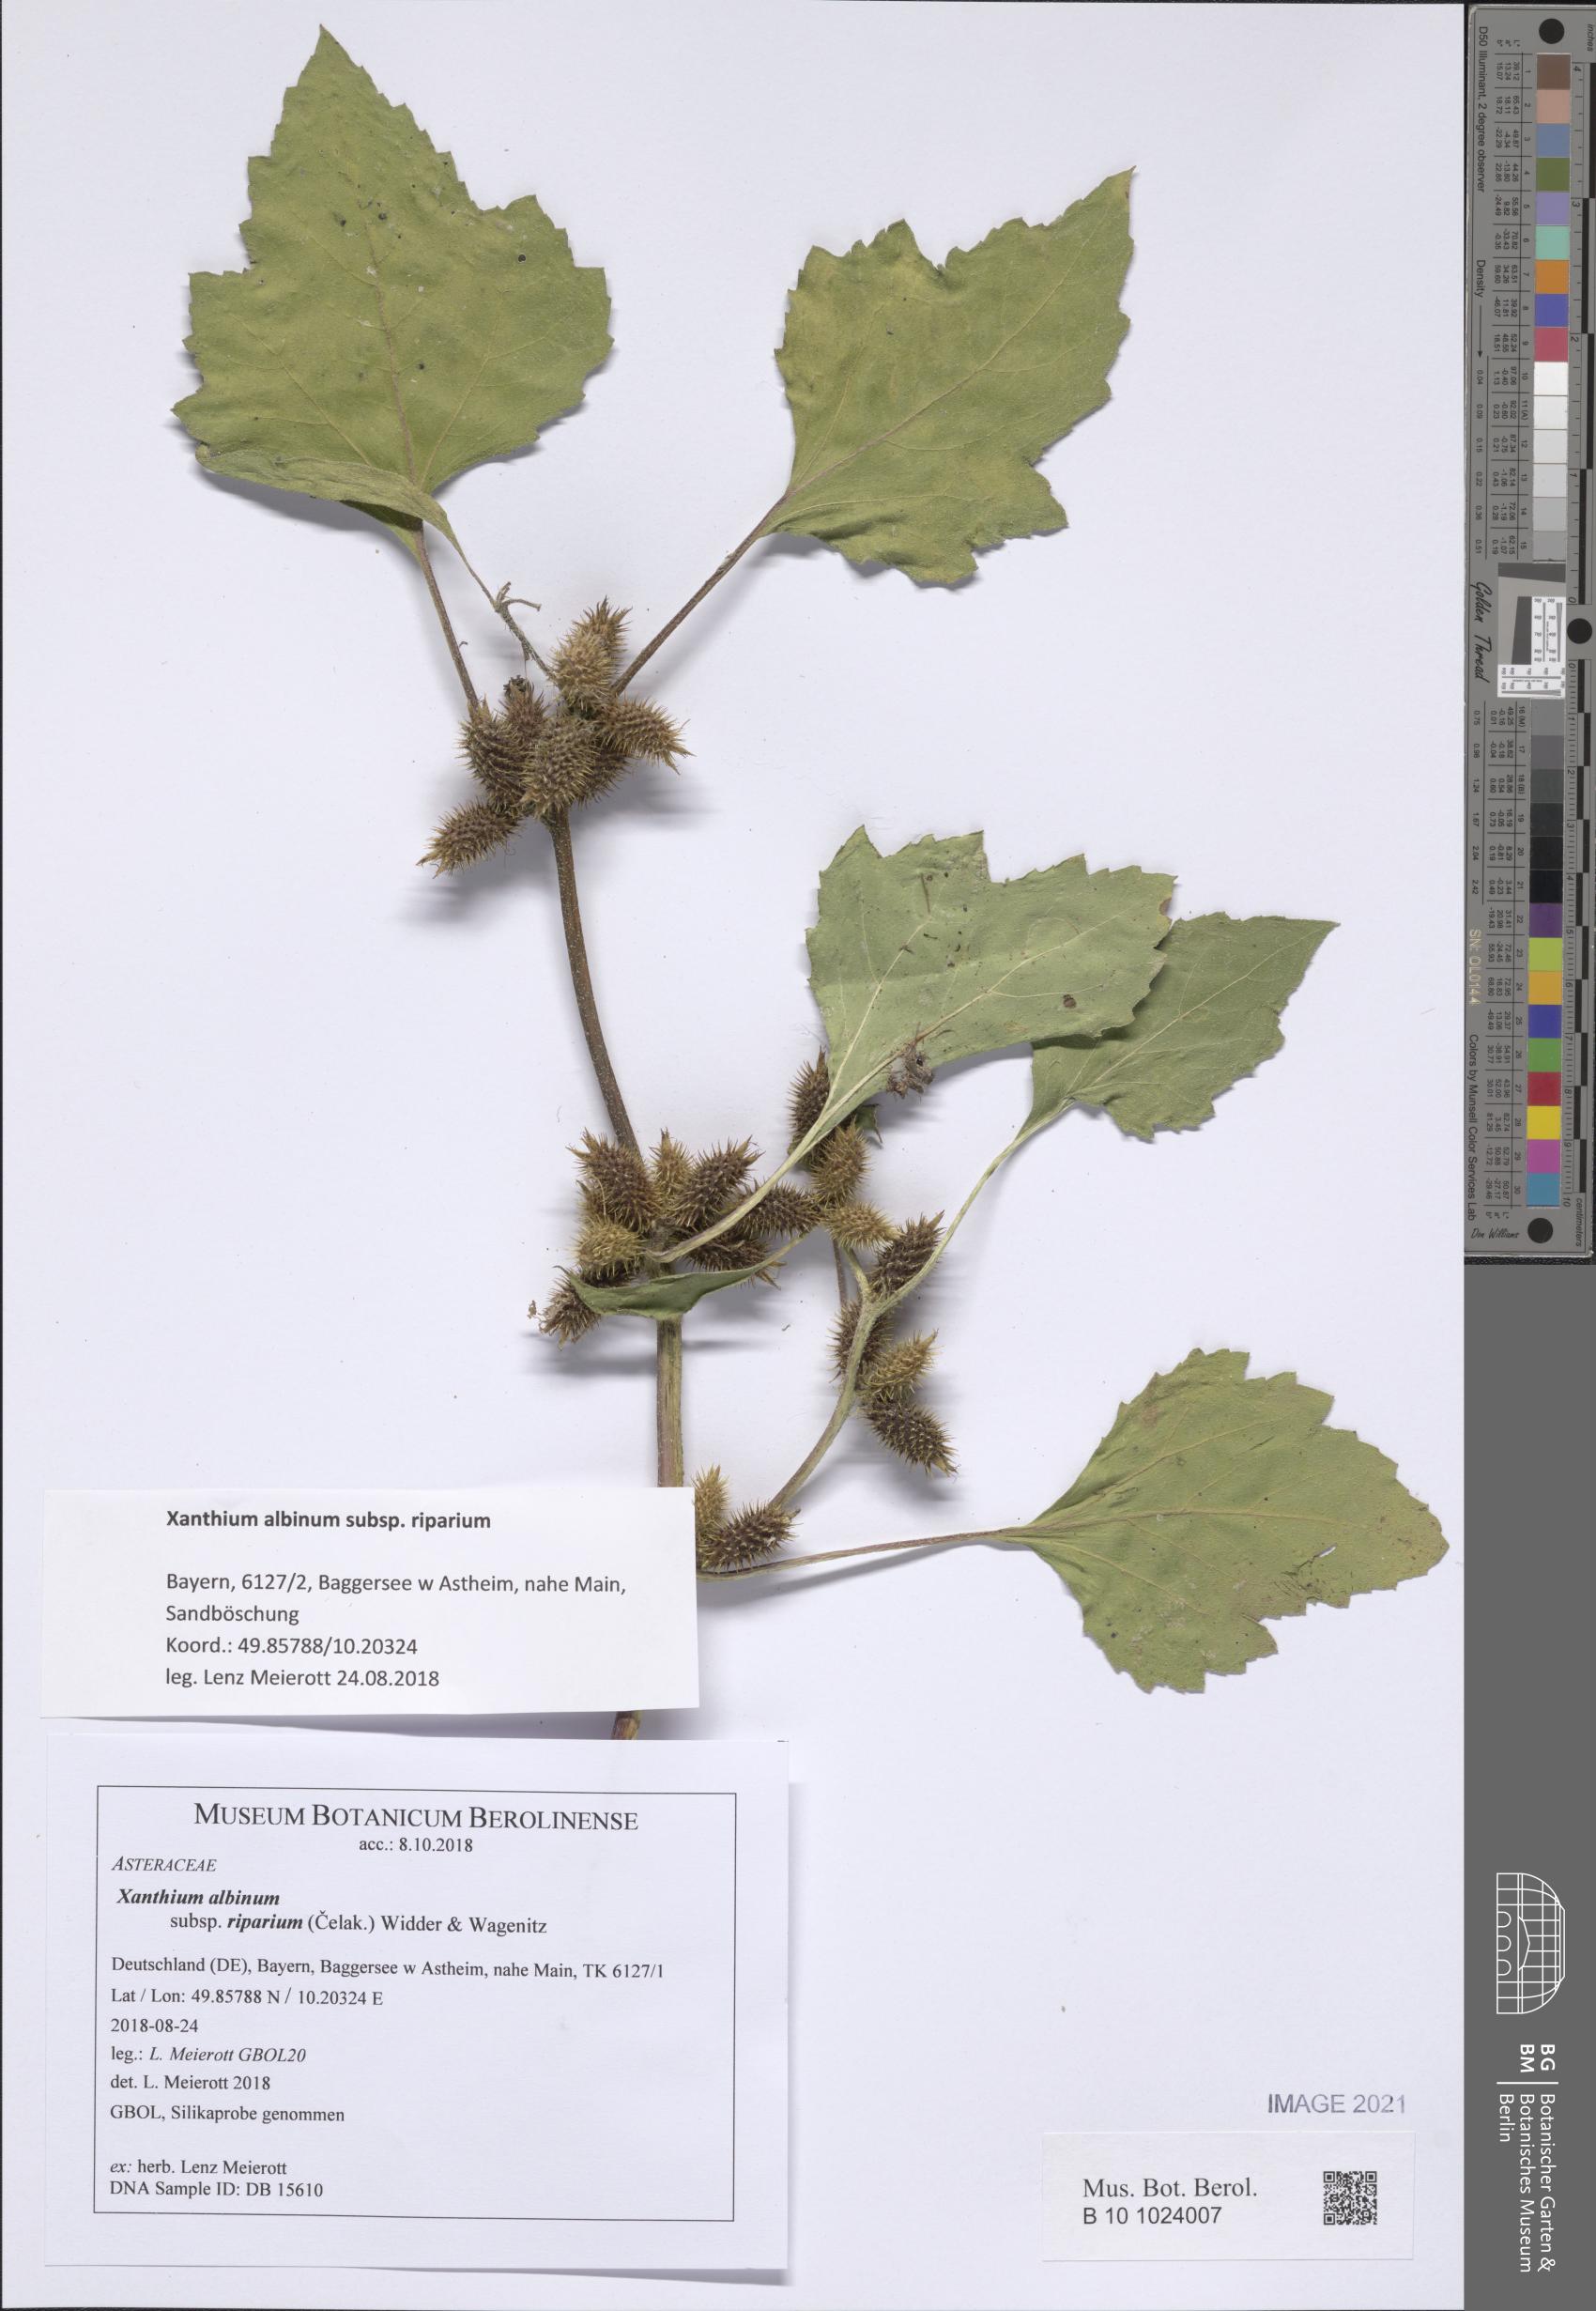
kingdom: Plantae
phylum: Tracheophyta
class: Magnoliopsida
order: Asterales
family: Asteraceae
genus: Xanthium
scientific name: Xanthium orientale
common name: Californian burr
